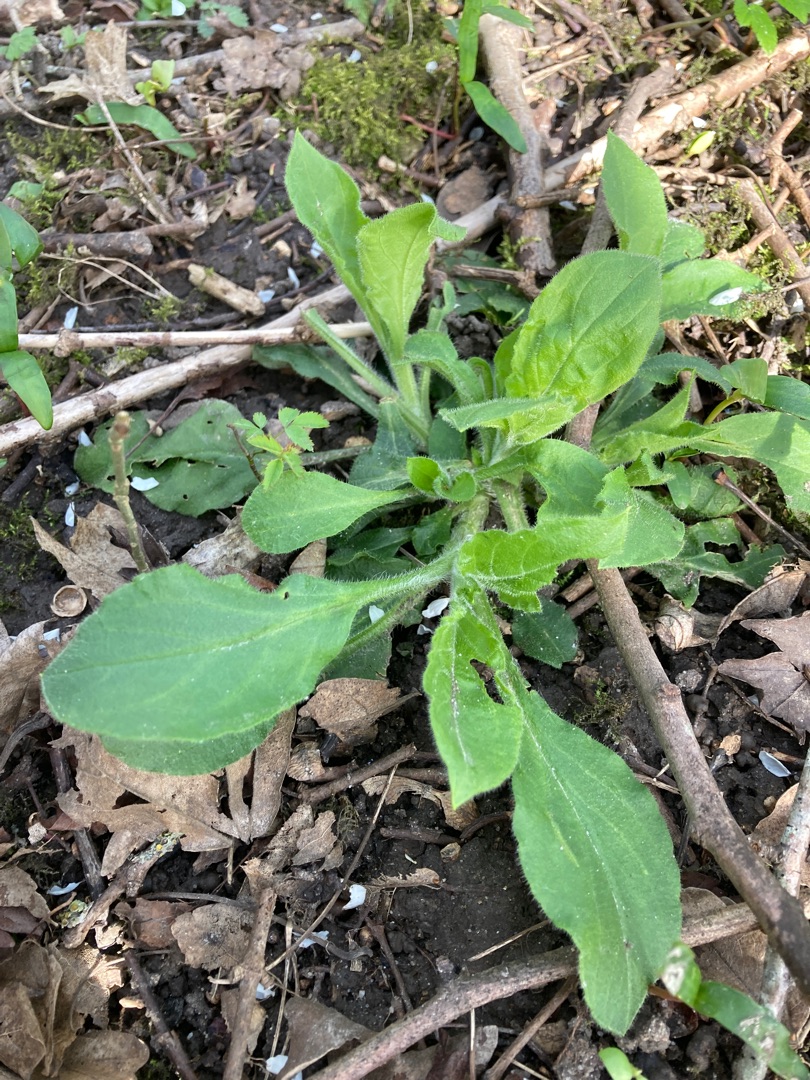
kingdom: Plantae
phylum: Tracheophyta
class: Magnoliopsida
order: Caryophyllales
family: Caryophyllaceae
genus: Silene
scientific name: Silene dioica
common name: Dagpragtstjerne
